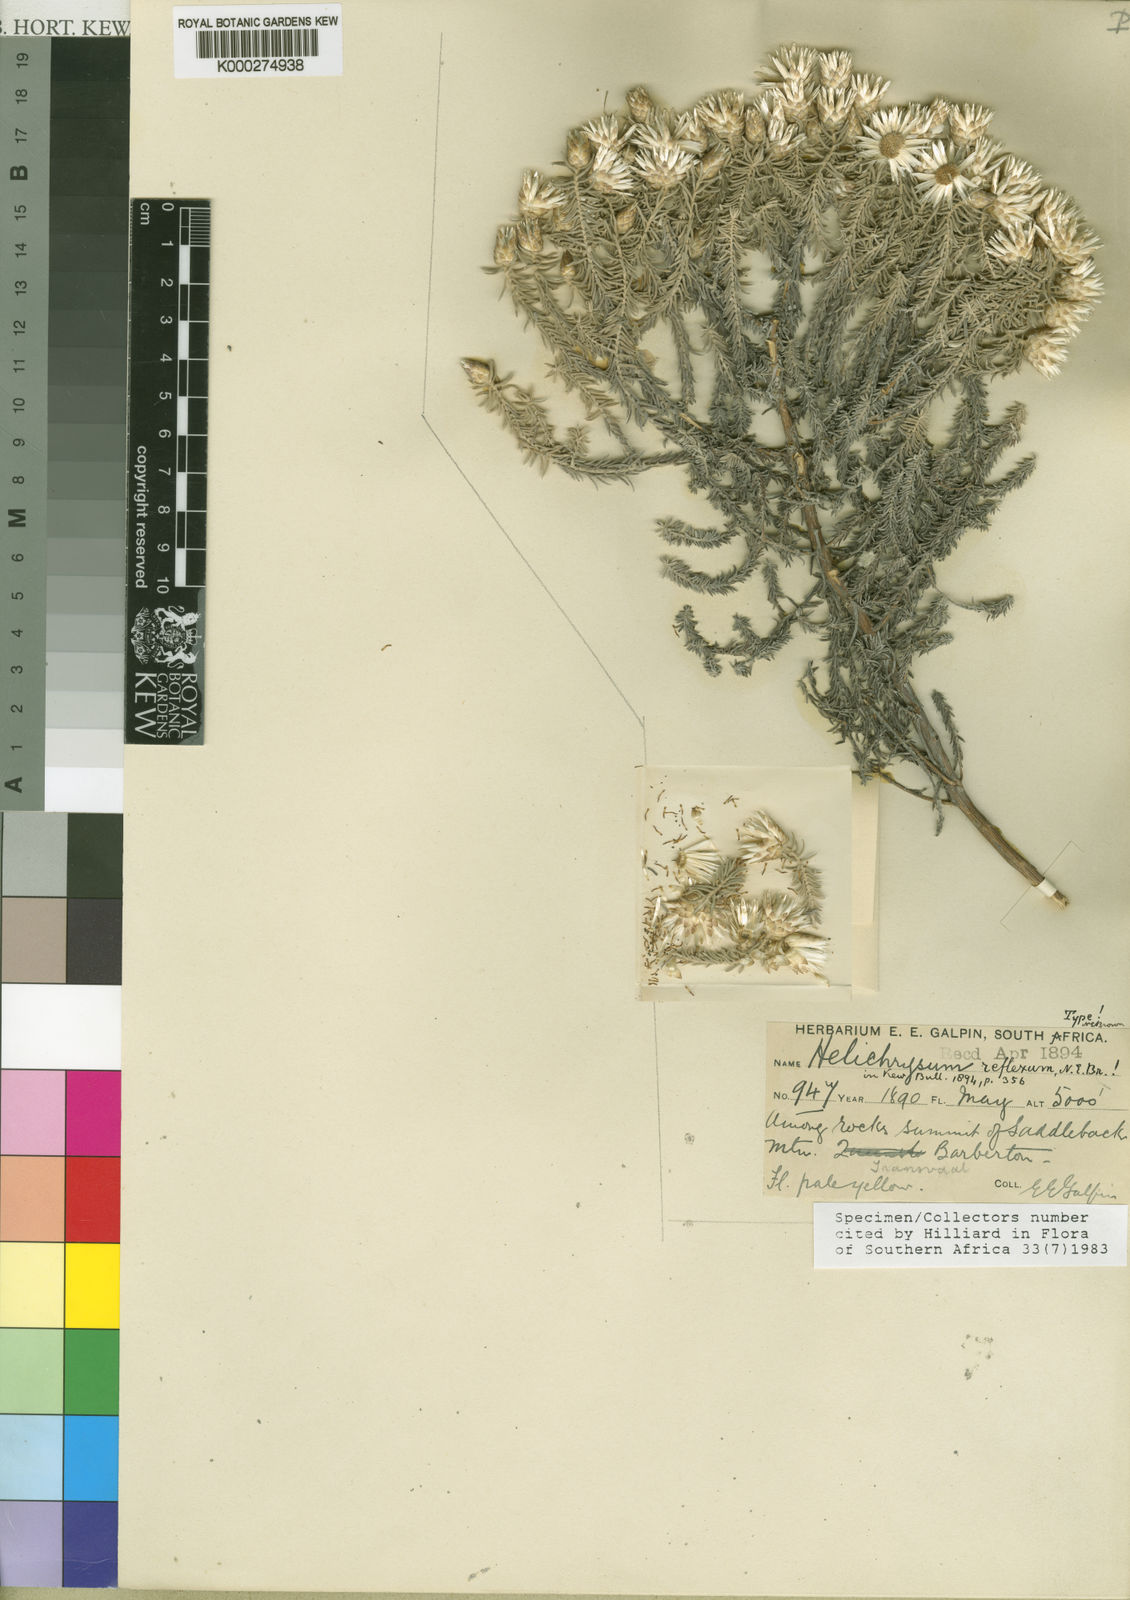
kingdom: Plantae
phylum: Tracheophyta
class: Magnoliopsida
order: Asterales
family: Asteraceae
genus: Helichrysum
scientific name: Helichrysum reflexum
